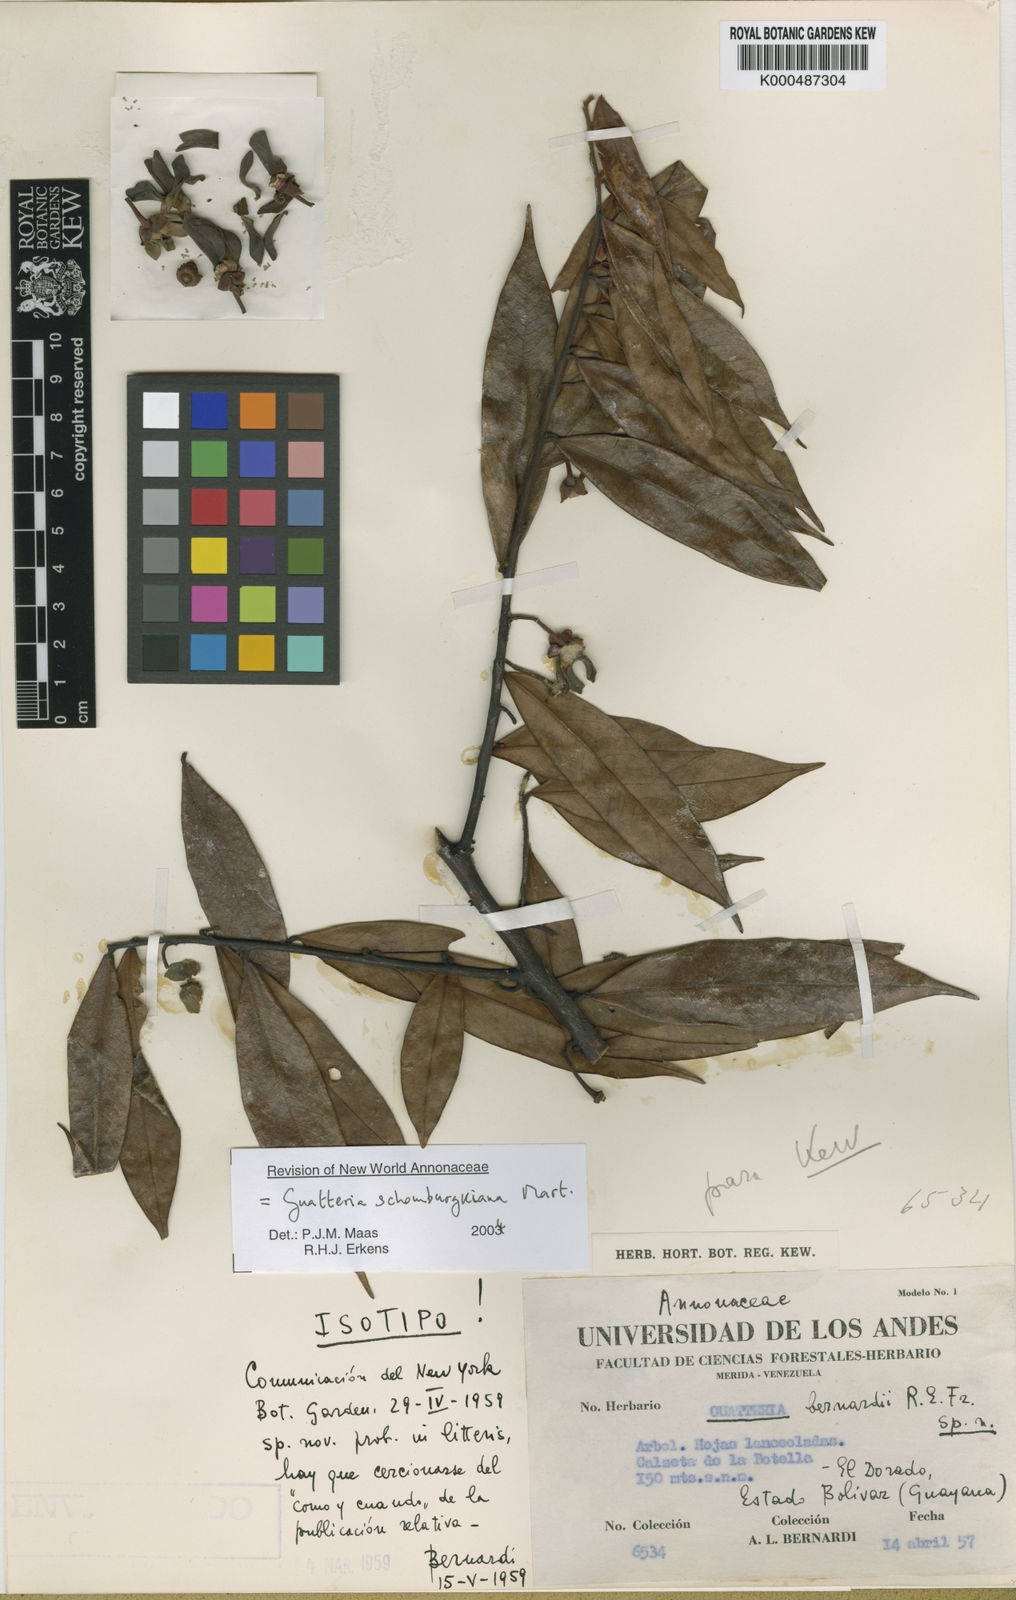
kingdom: Plantae
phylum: Tracheophyta
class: Magnoliopsida
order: Magnoliales
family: Annonaceae
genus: Guatteria
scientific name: Guatteria schomburgkiana
